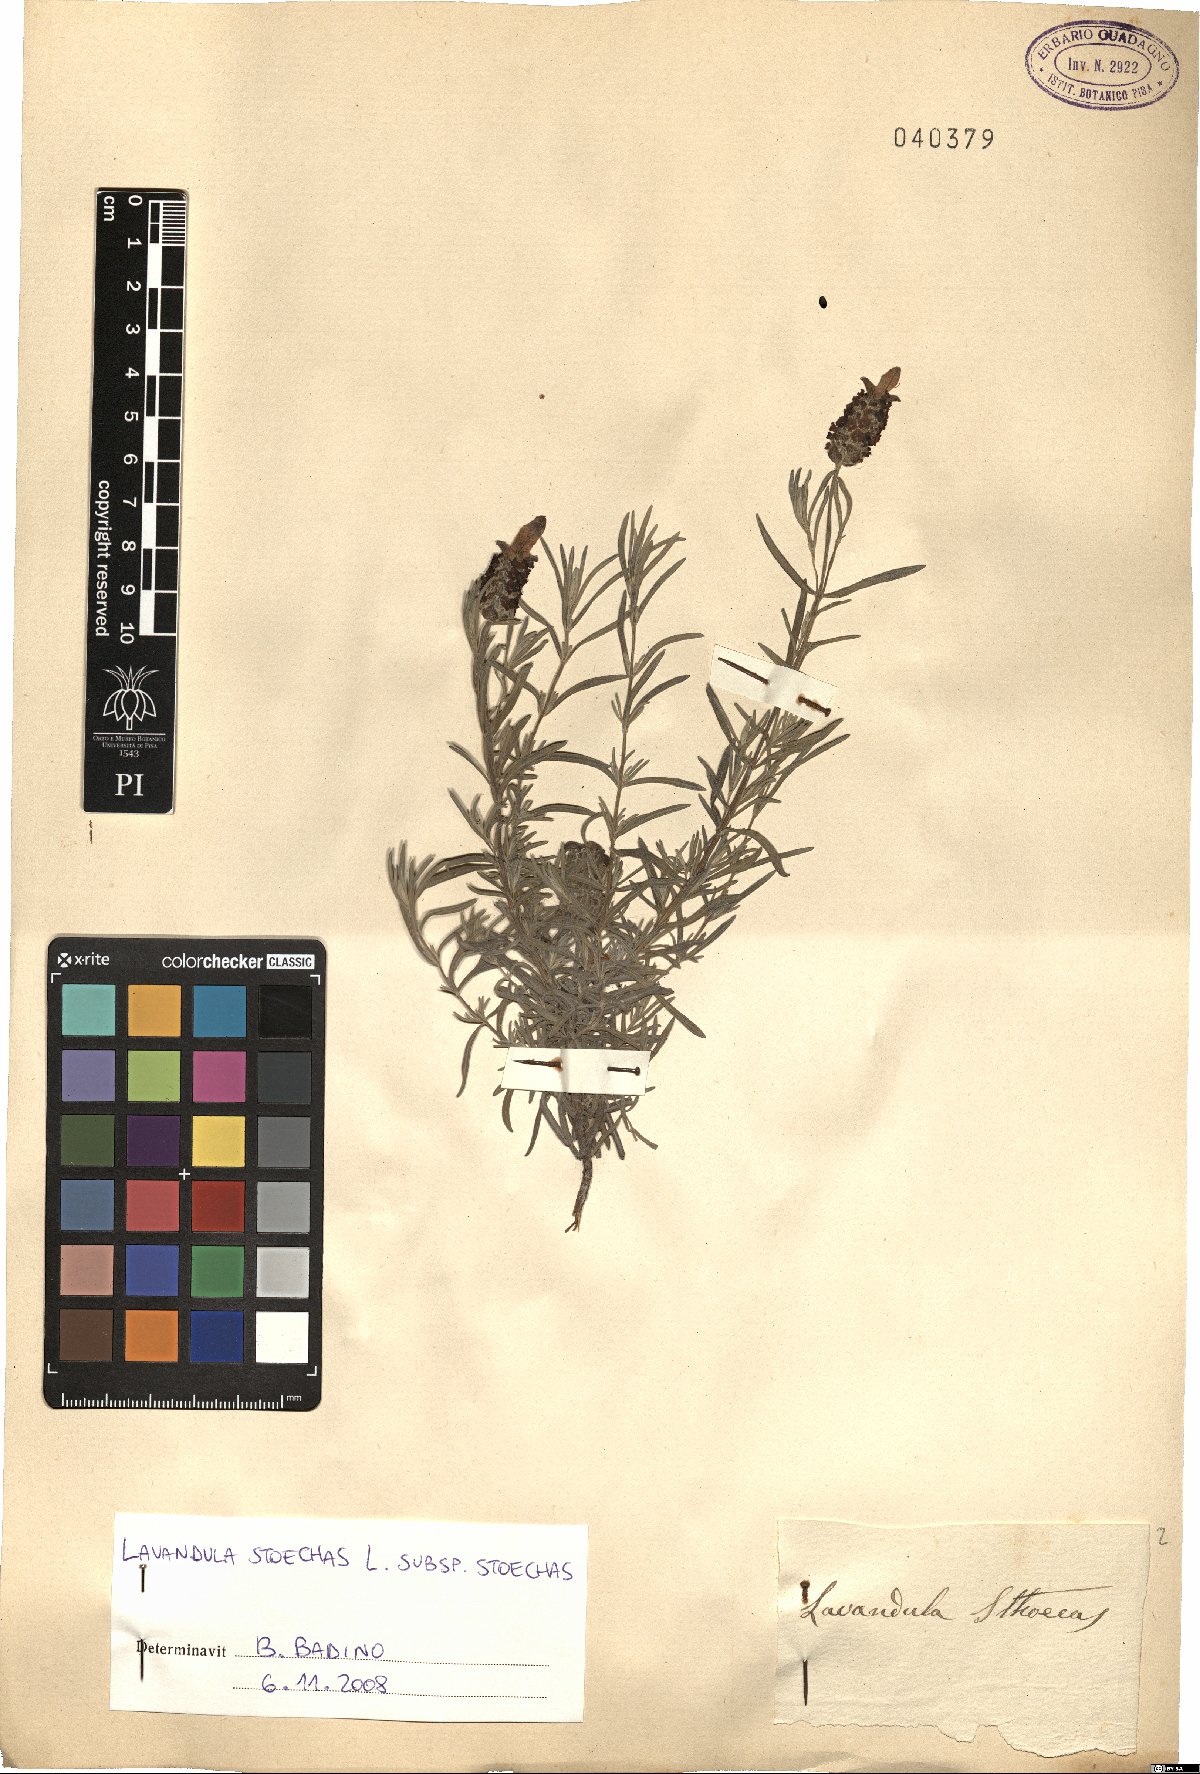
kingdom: Plantae
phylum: Tracheophyta
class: Magnoliopsida
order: Lamiales
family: Lamiaceae
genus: Lavandula
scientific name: Lavandula stoechas
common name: French lavender
